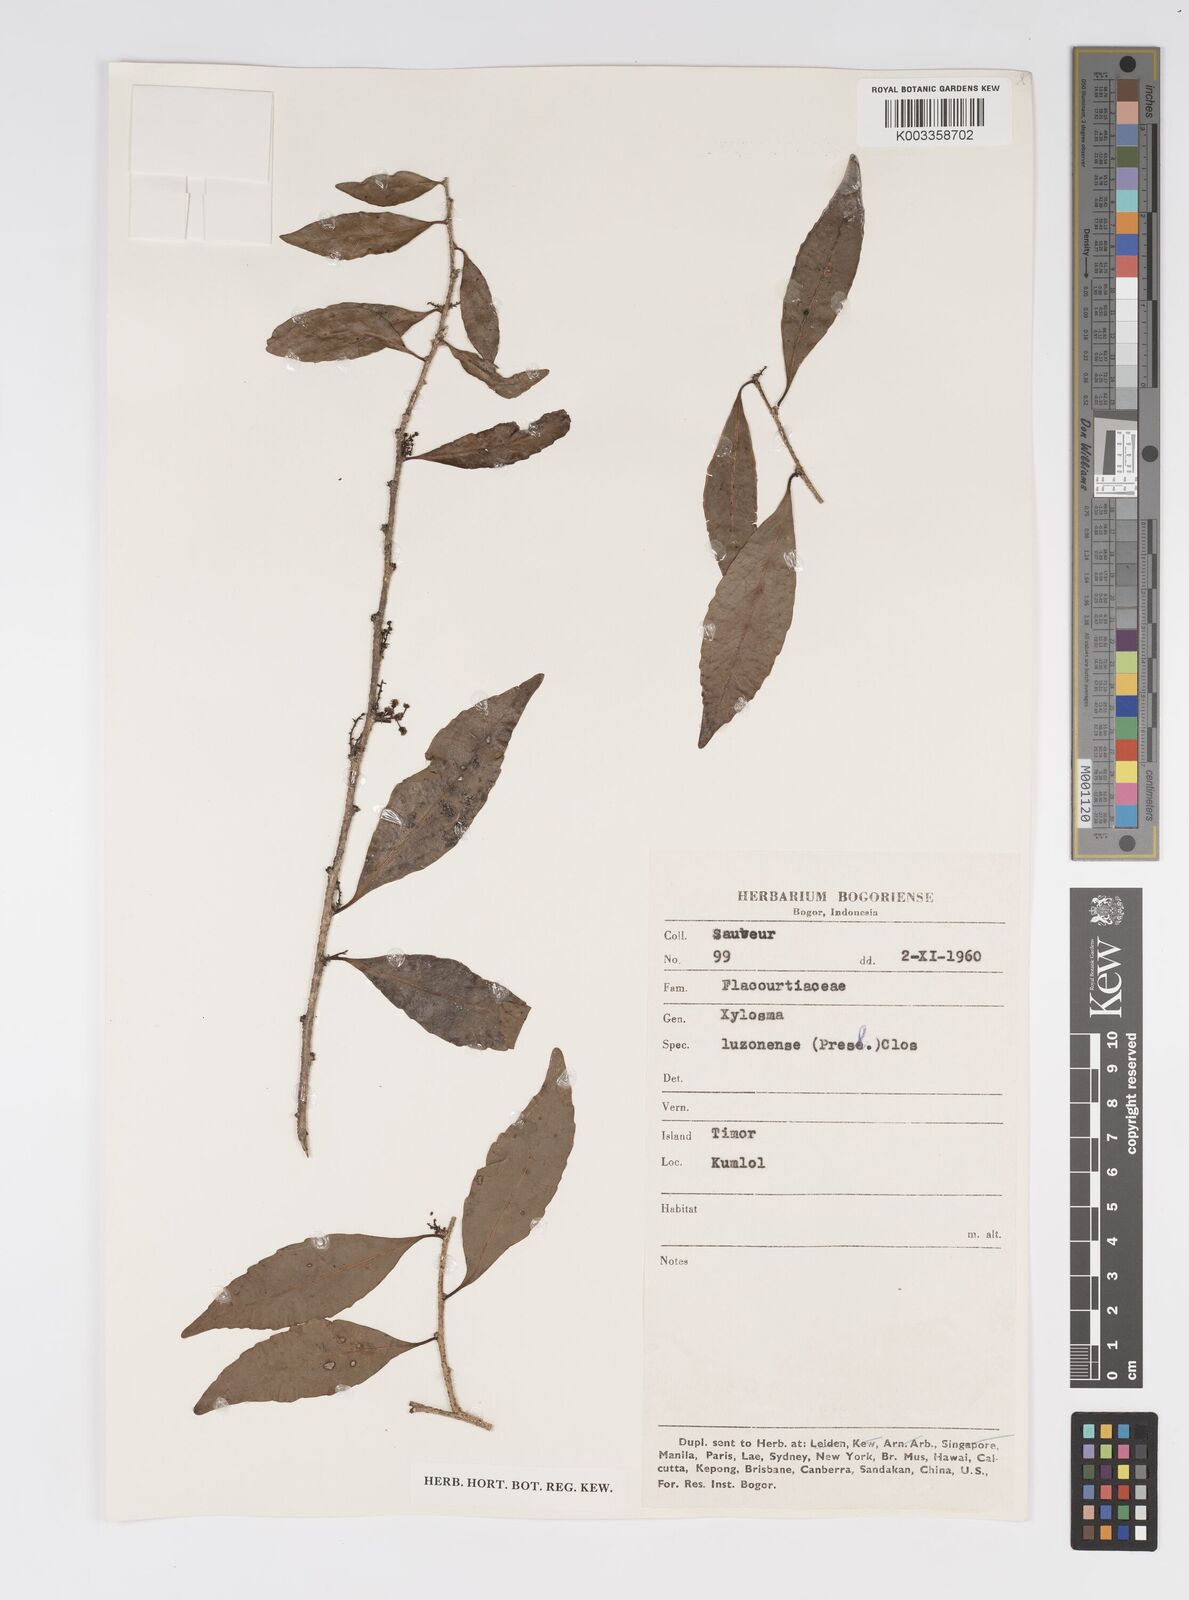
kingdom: Plantae
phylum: Tracheophyta
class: Magnoliopsida
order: Malpighiales
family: Salicaceae
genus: Xylosma
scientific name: Xylosma luzonensis
